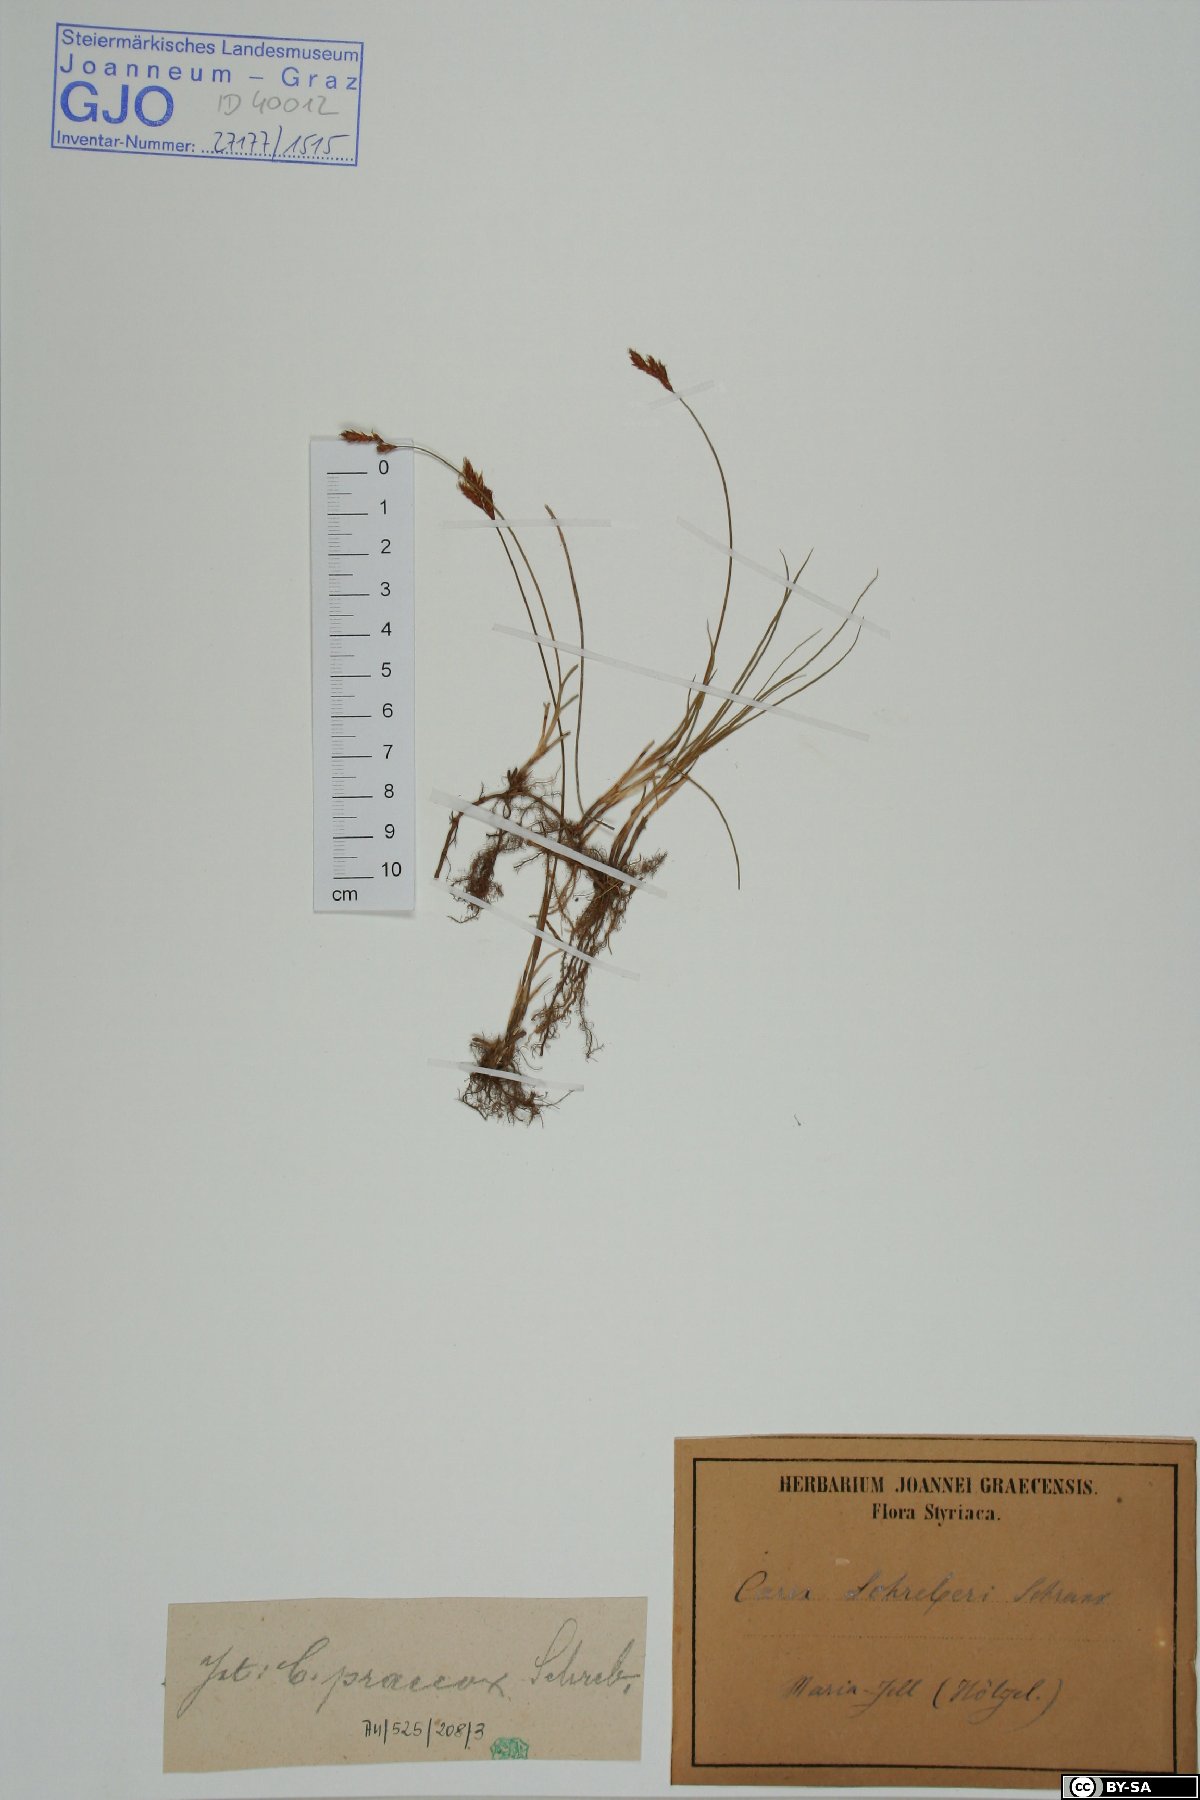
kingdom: Plantae
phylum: Tracheophyta
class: Liliopsida
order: Poales
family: Cyperaceae
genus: Carex
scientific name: Carex praecox
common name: Early sedge
